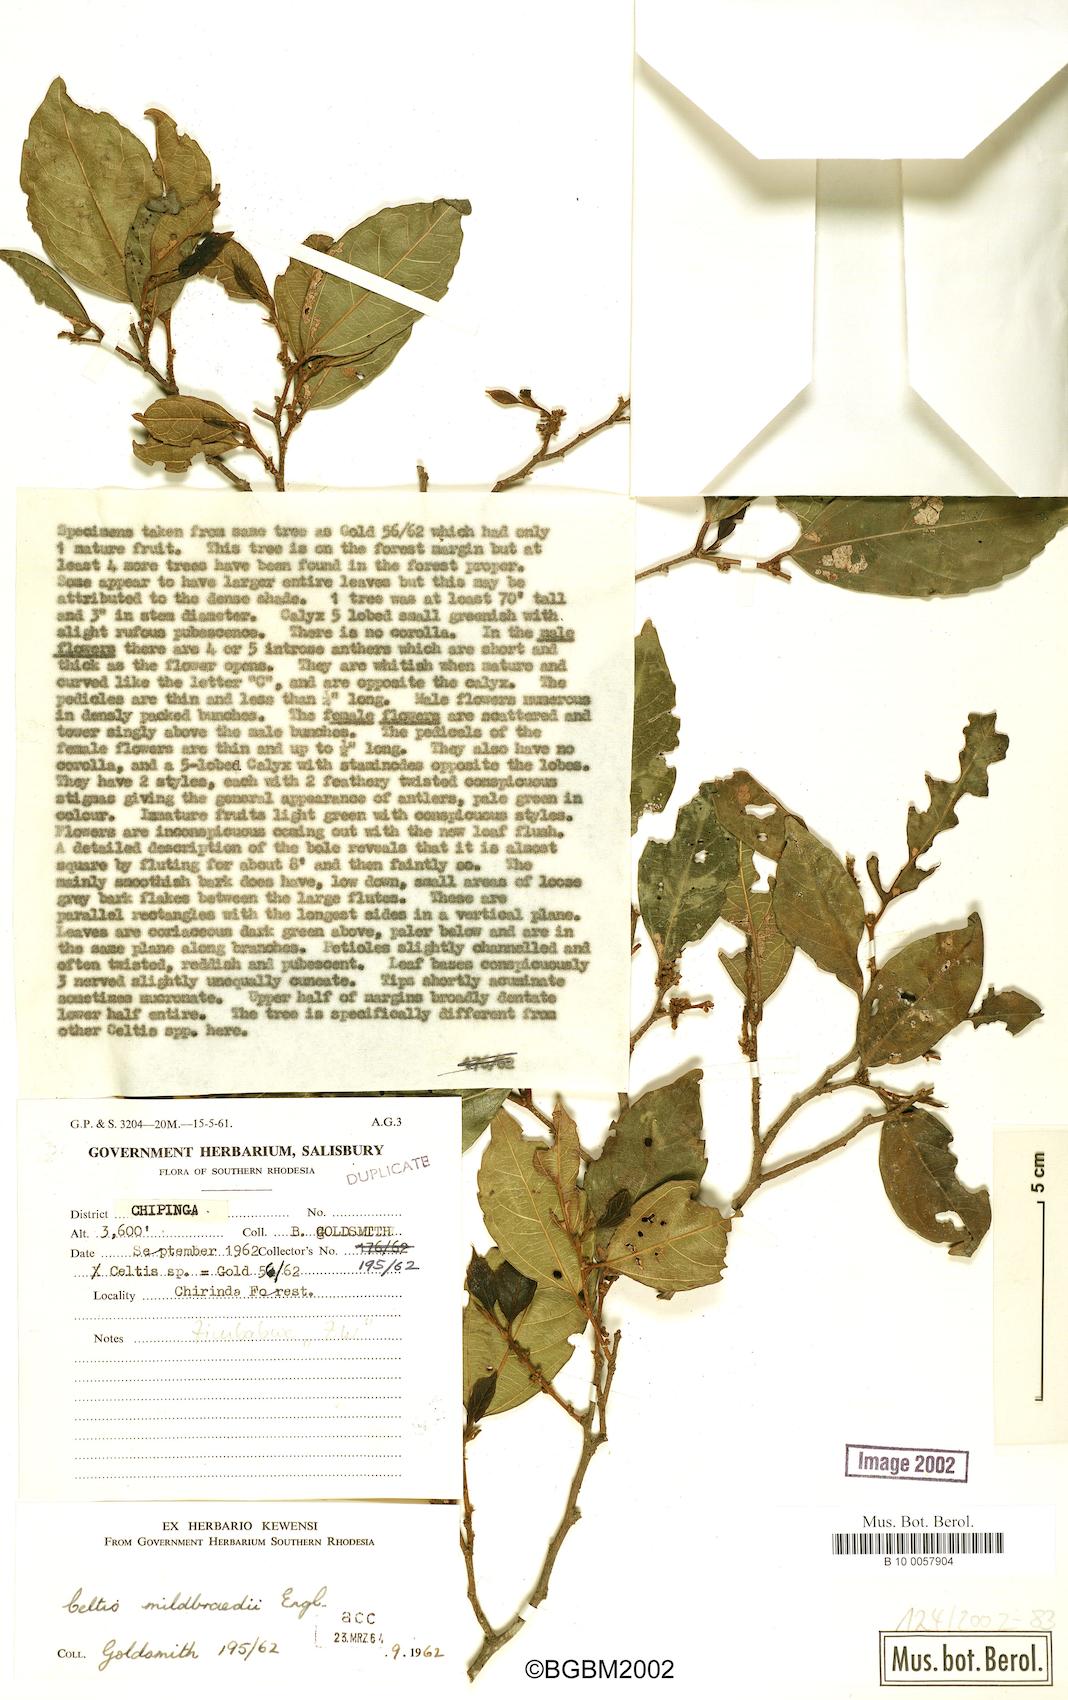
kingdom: Plantae
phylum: Tracheophyta
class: Magnoliopsida
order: Rosales
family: Cannabaceae
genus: Celtis
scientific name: Celtis mildbraedii
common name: Red-fruited stinkwood
